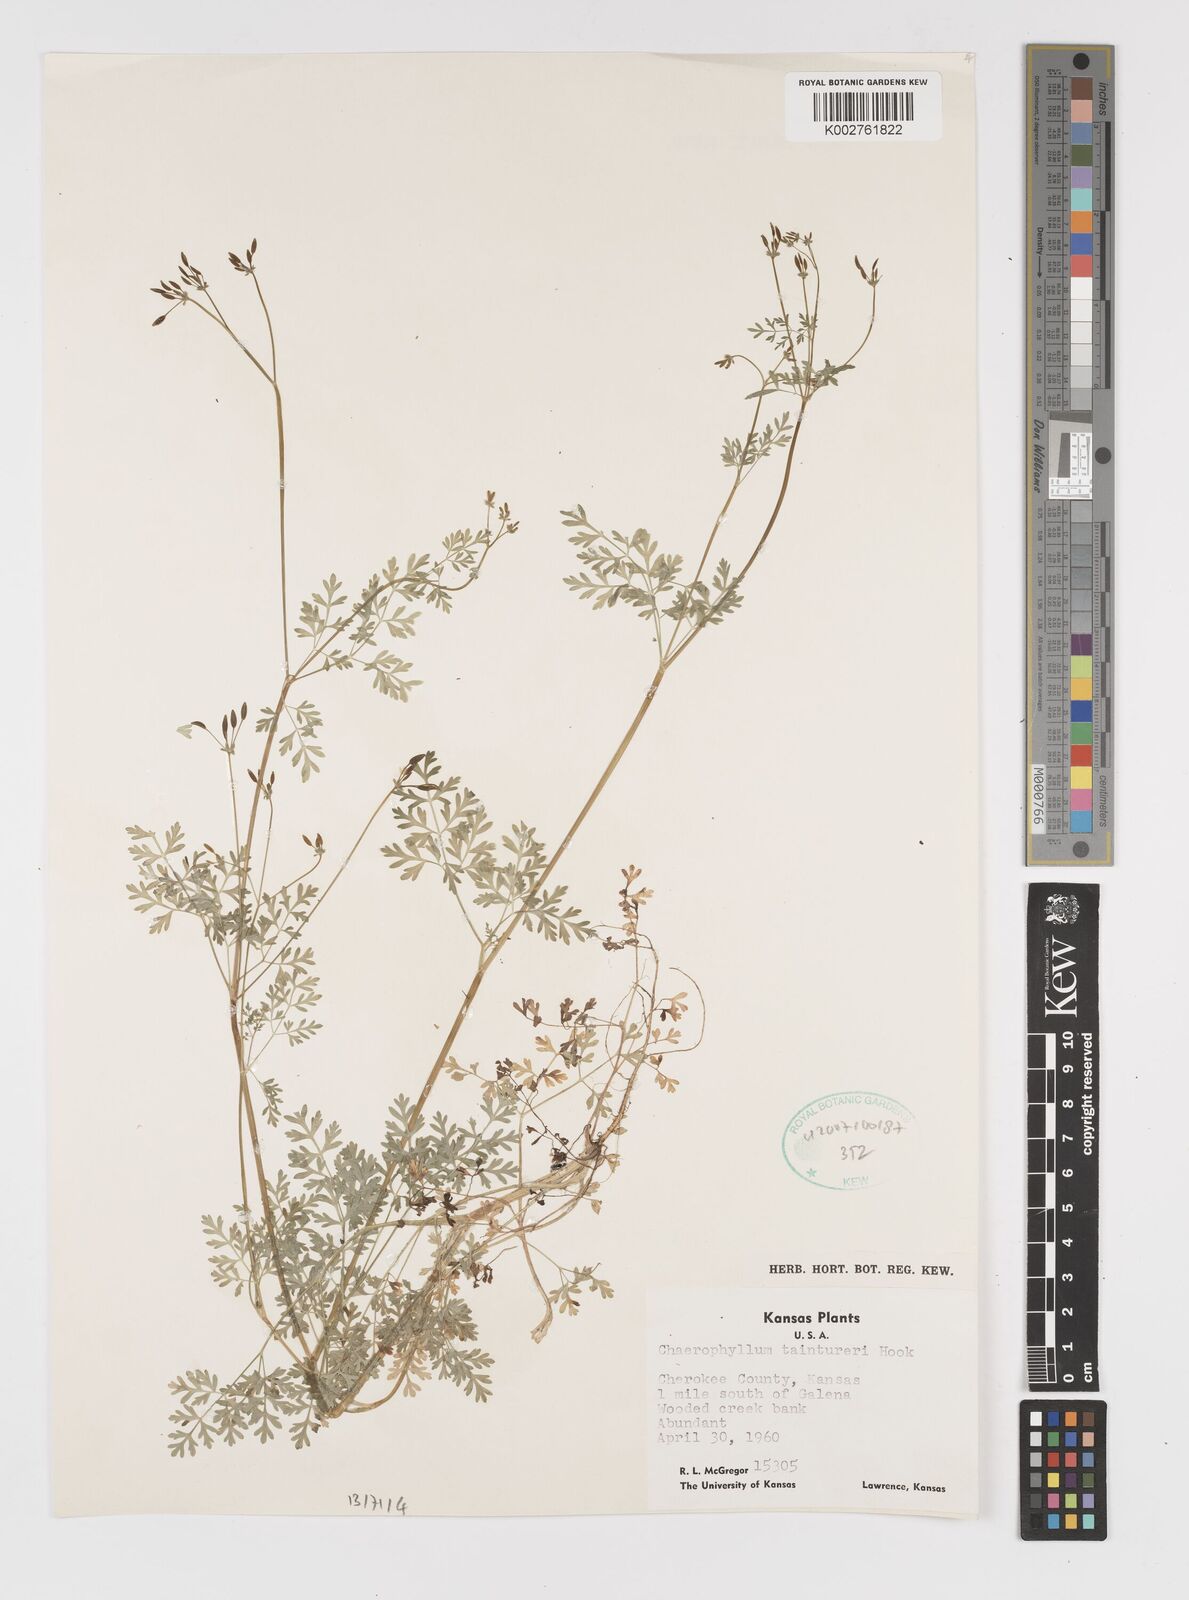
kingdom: Plantae
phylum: Tracheophyta
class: Magnoliopsida
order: Apiales
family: Apiaceae
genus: Chaerophyllum
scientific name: Chaerophyllum tainturieri
